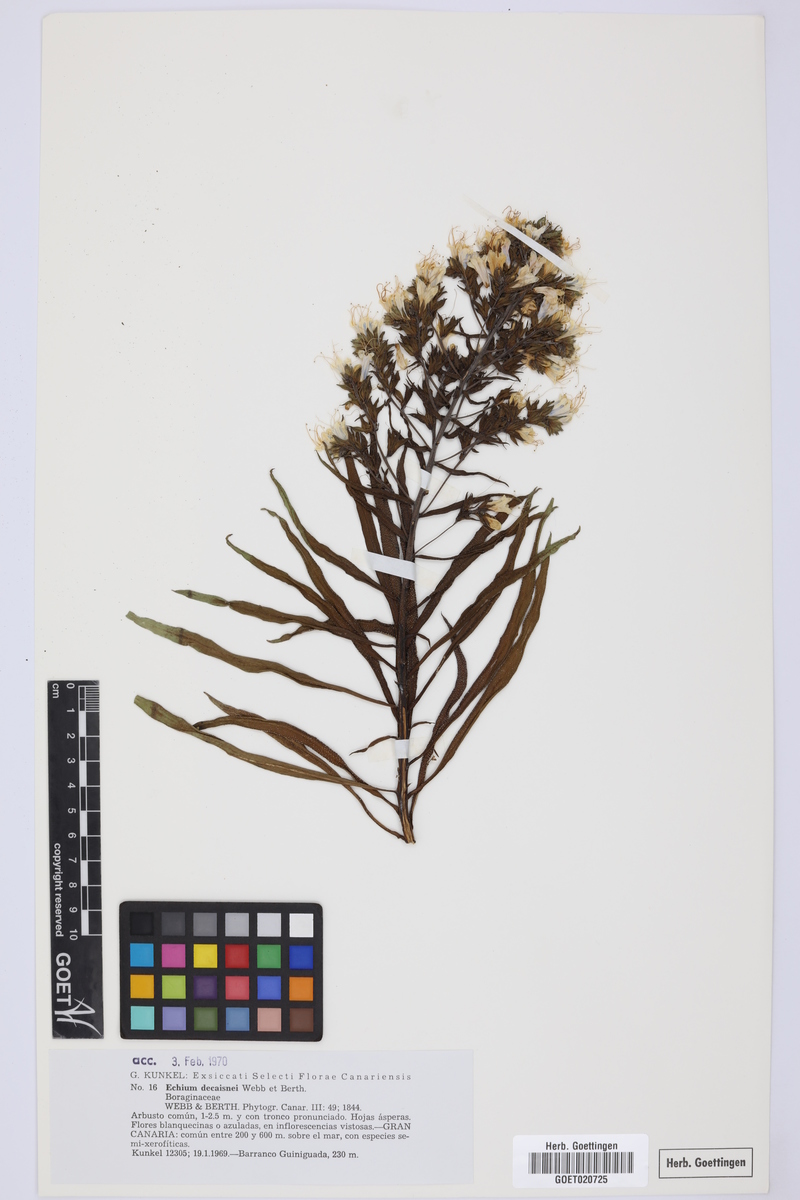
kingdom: Plantae
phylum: Tracheophyta
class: Magnoliopsida
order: Boraginales
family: Boraginaceae
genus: Echium
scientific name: Echium decaisnei
